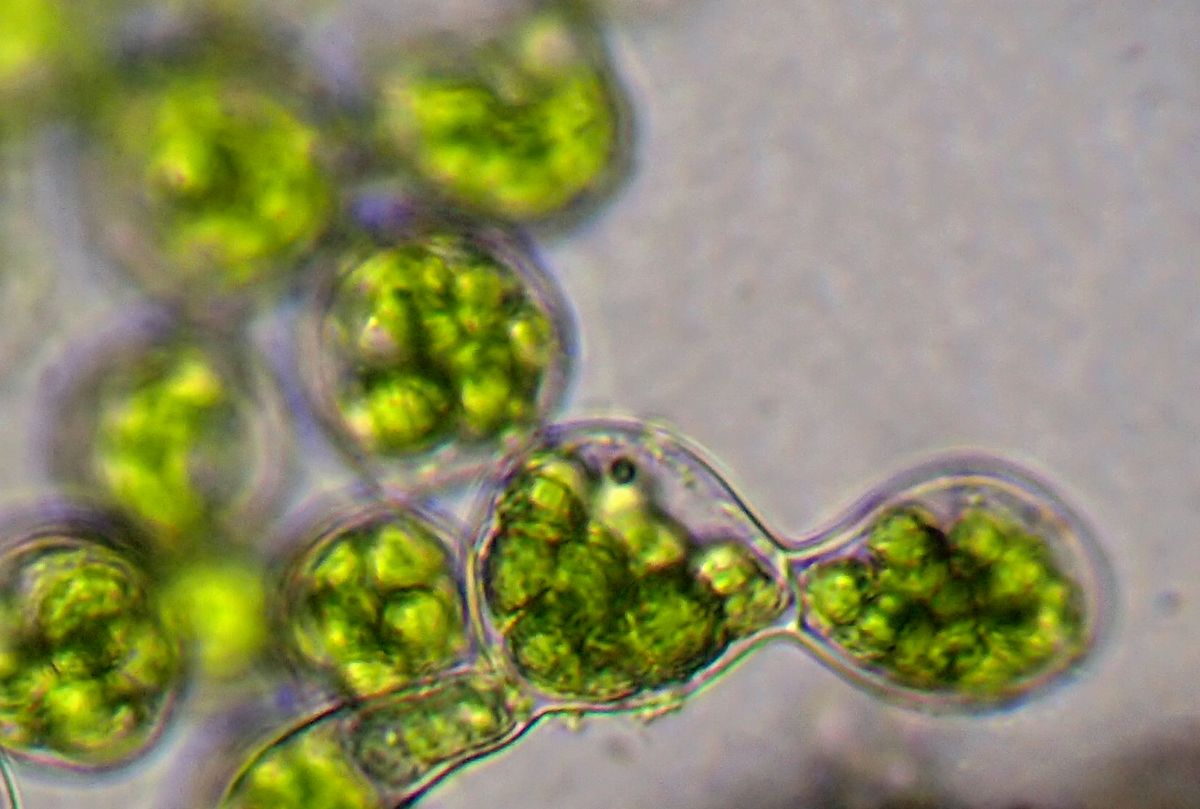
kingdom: Plantae
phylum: Bryophyta
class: Bryopsida
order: Dicranales
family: Schistostegaceae
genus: Schistostega
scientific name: Schistostega pennata
